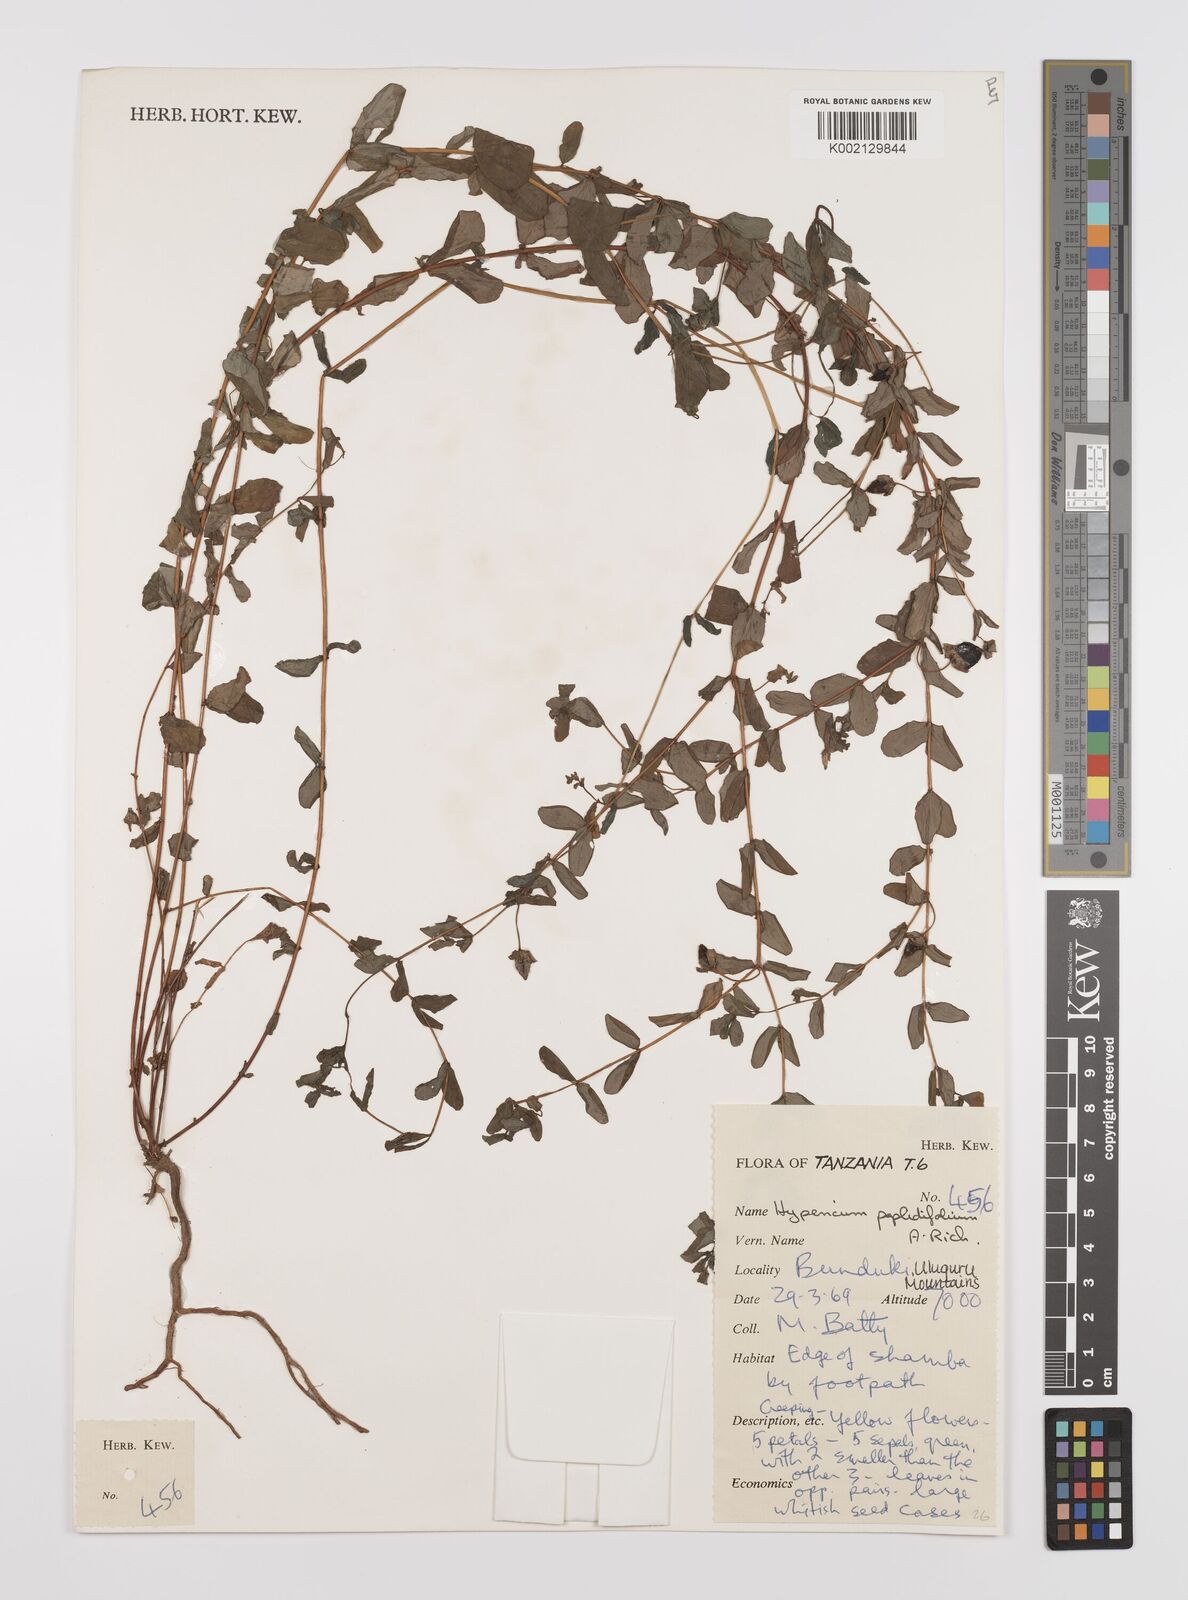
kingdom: Plantae
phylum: Tracheophyta
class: Magnoliopsida
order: Malpighiales
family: Hypericaceae
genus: Hypericum
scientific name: Hypericum peplidifolium
